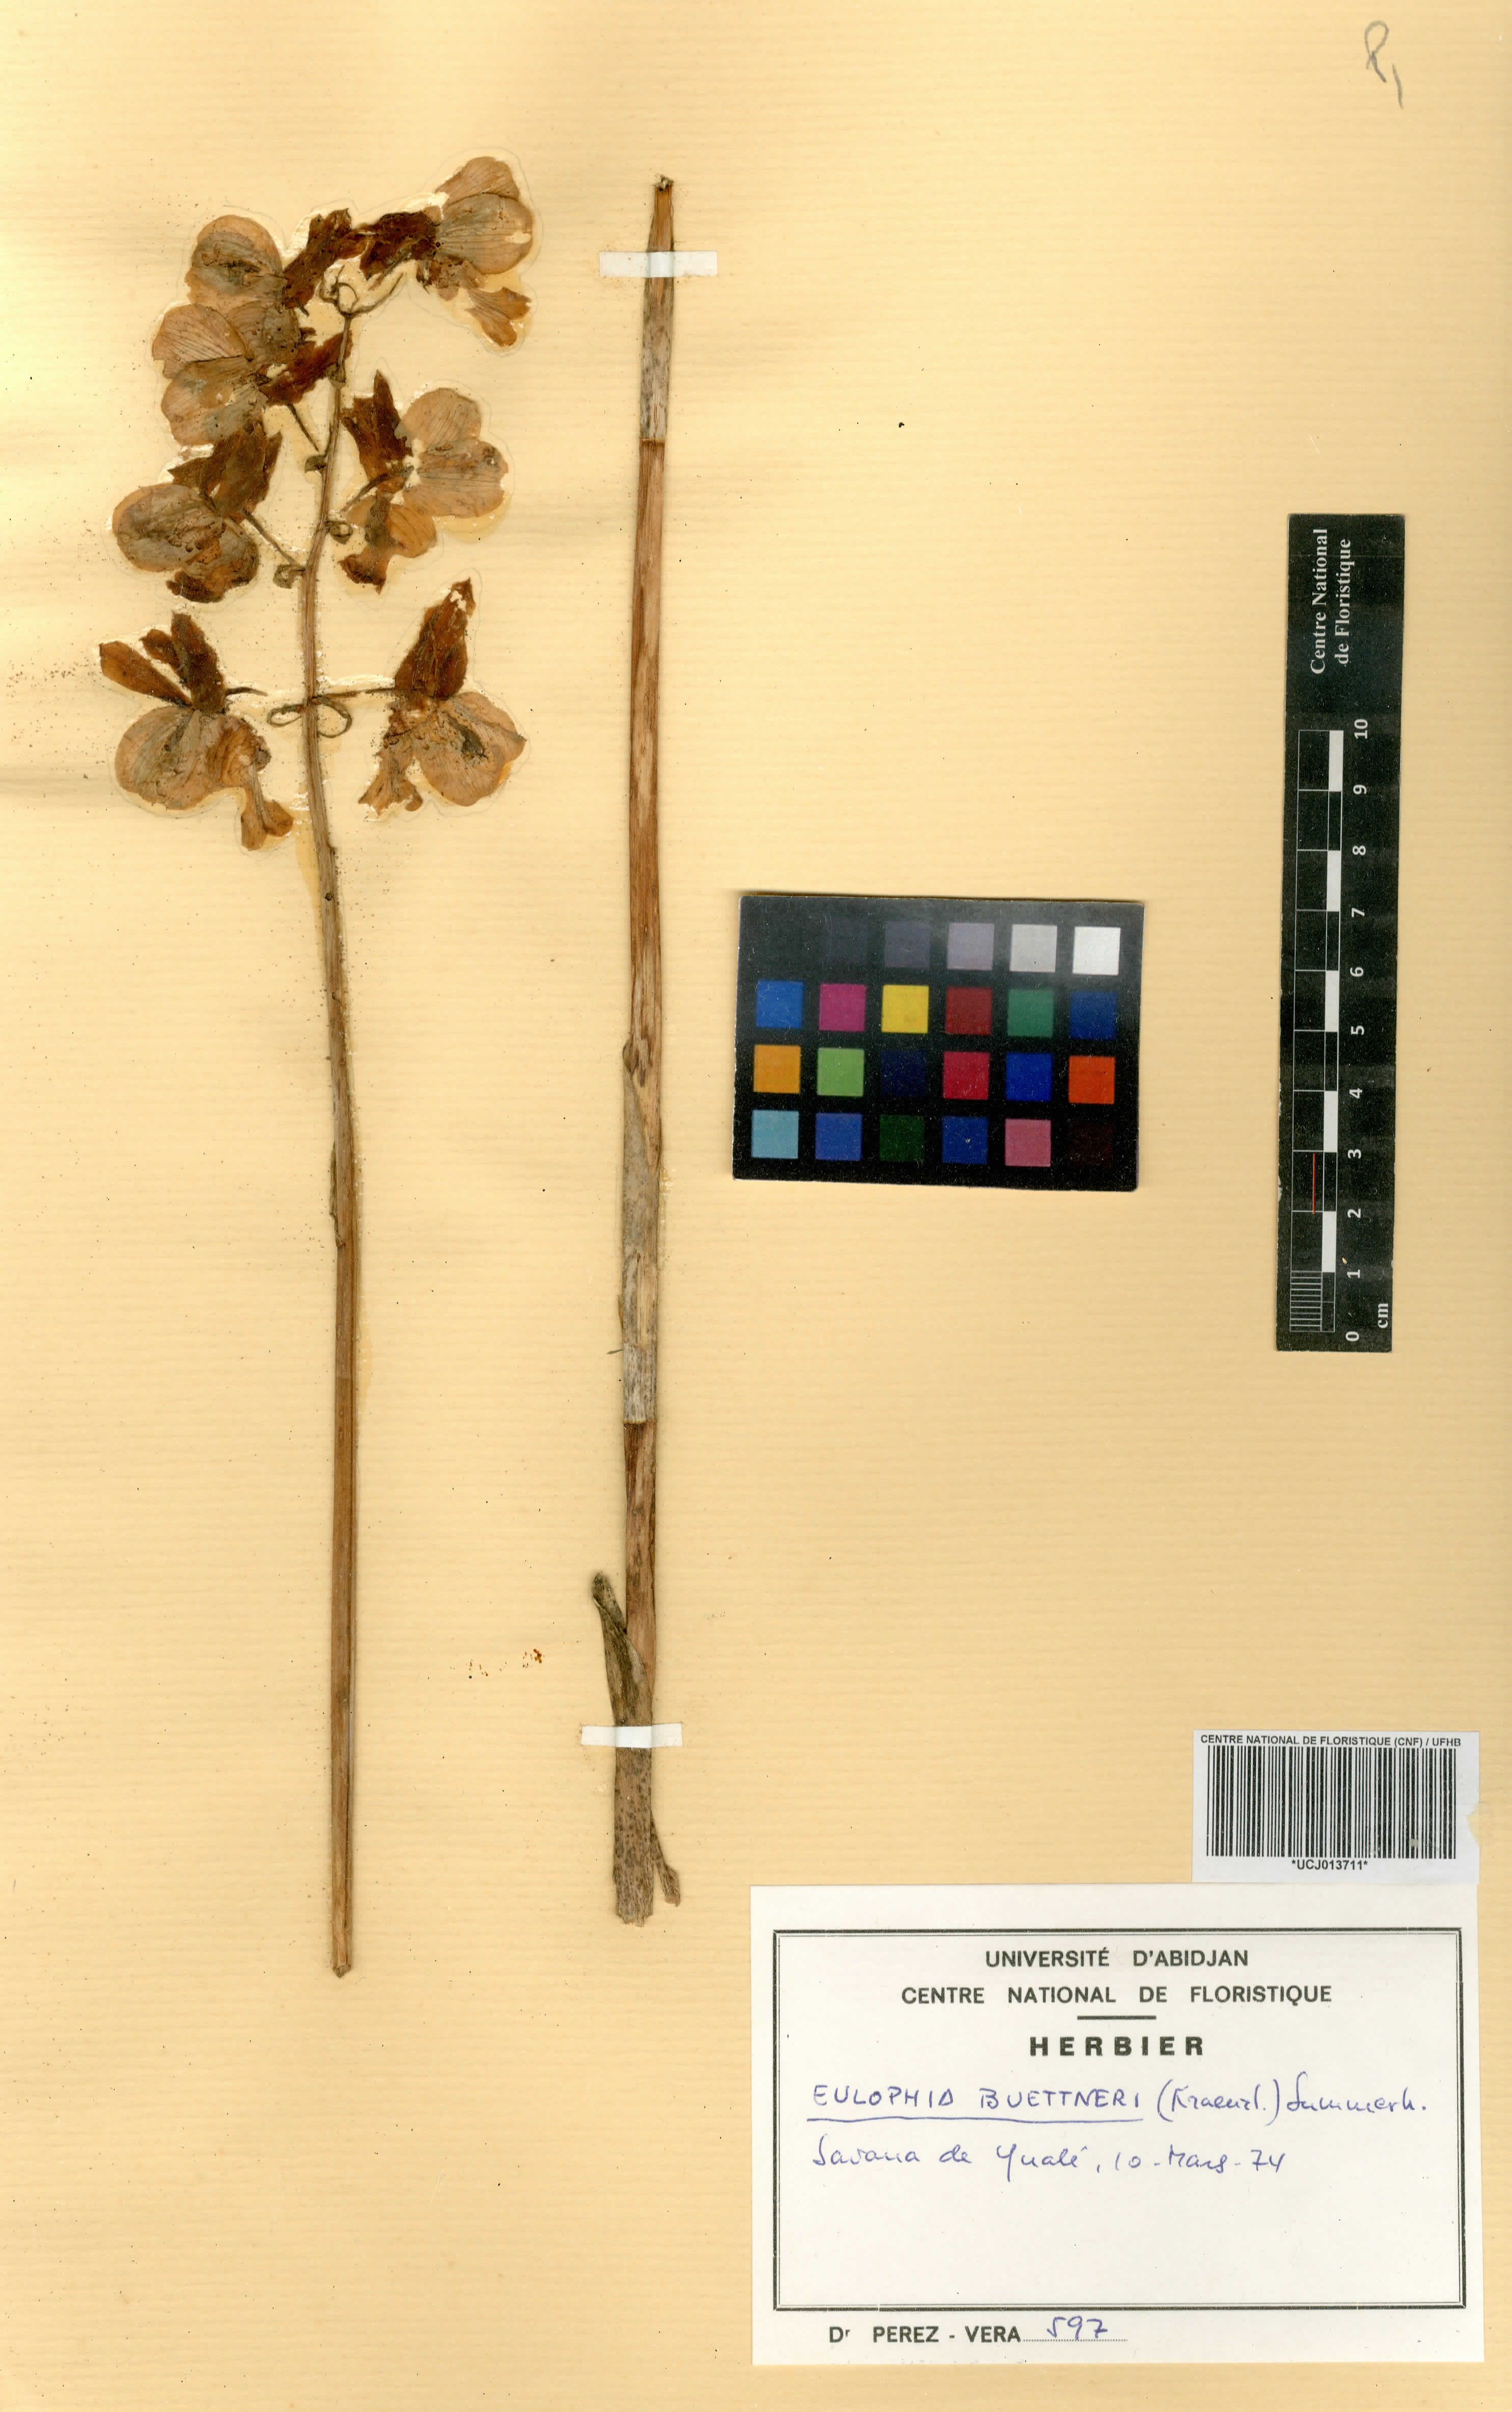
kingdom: Plantae
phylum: Tracheophyta
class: Liliopsida
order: Asparagales
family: Orchidaceae
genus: Eulophia
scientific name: Eulophia buettneri
